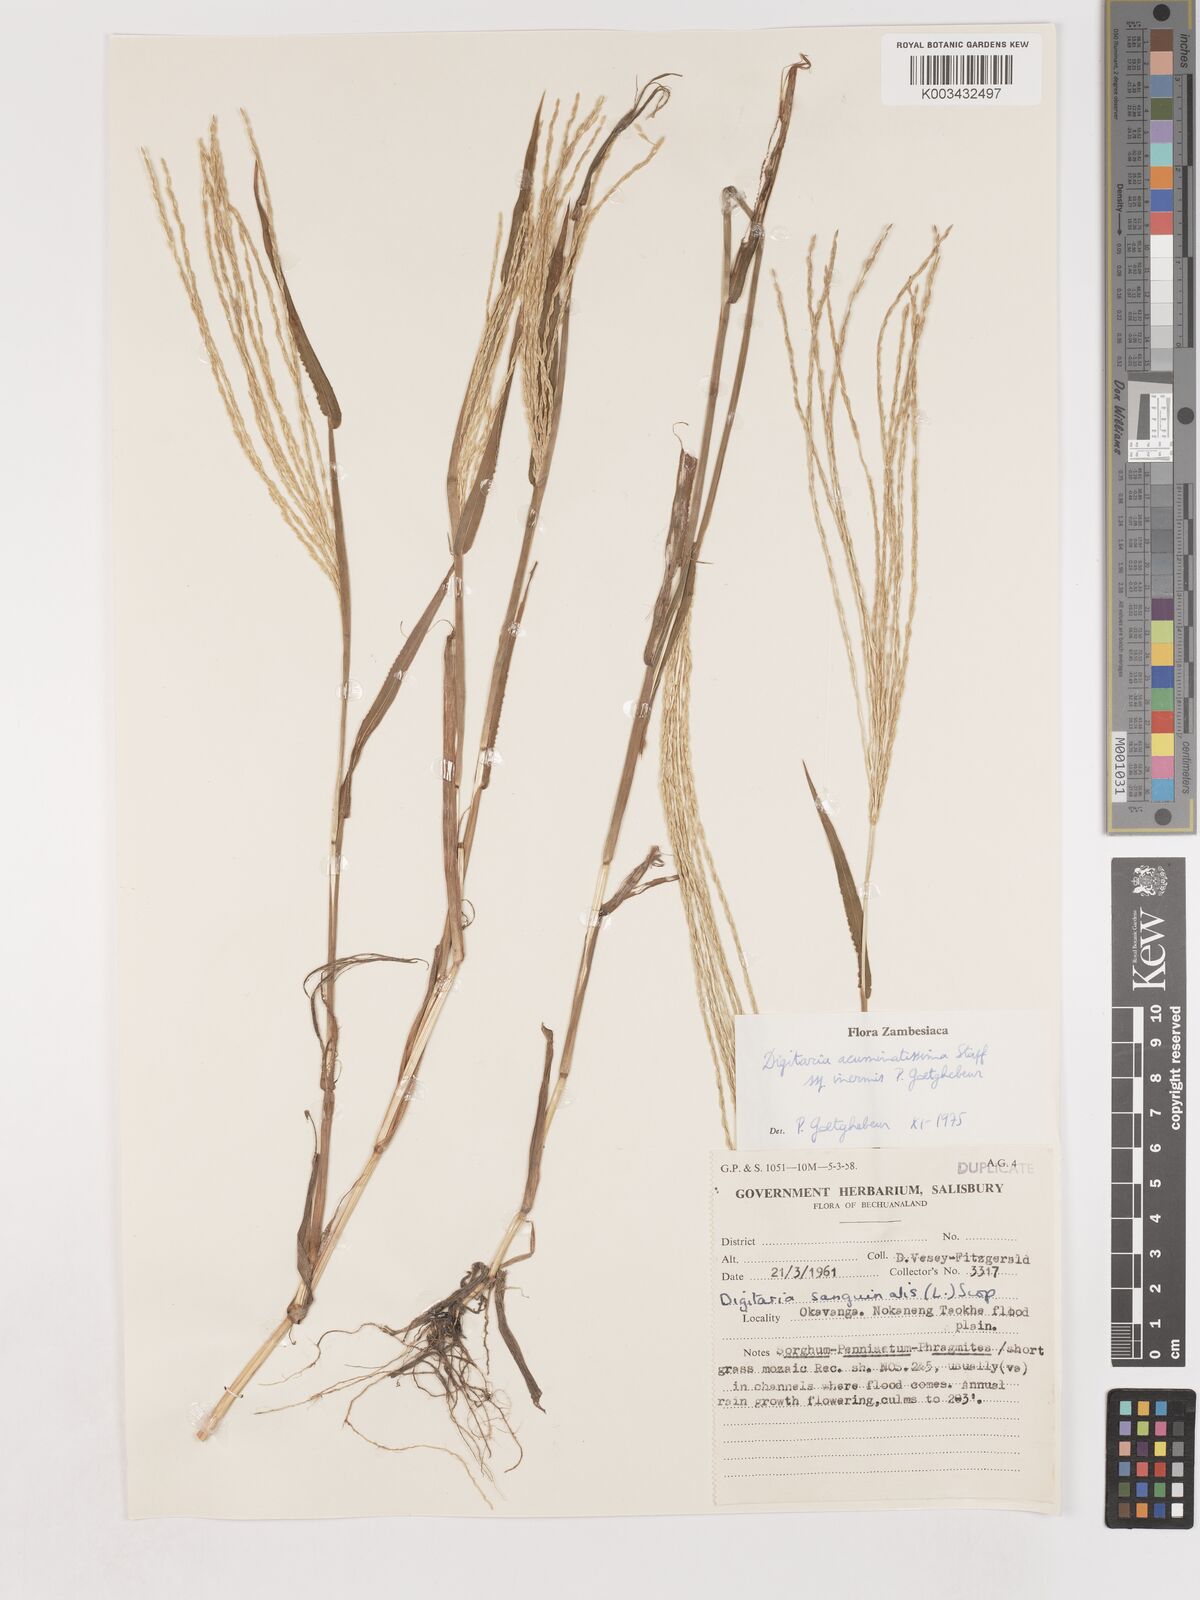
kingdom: Plantae
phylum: Tracheophyta
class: Liliopsida
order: Poales
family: Poaceae
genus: Digitaria
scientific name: Digitaria acuminatissima
